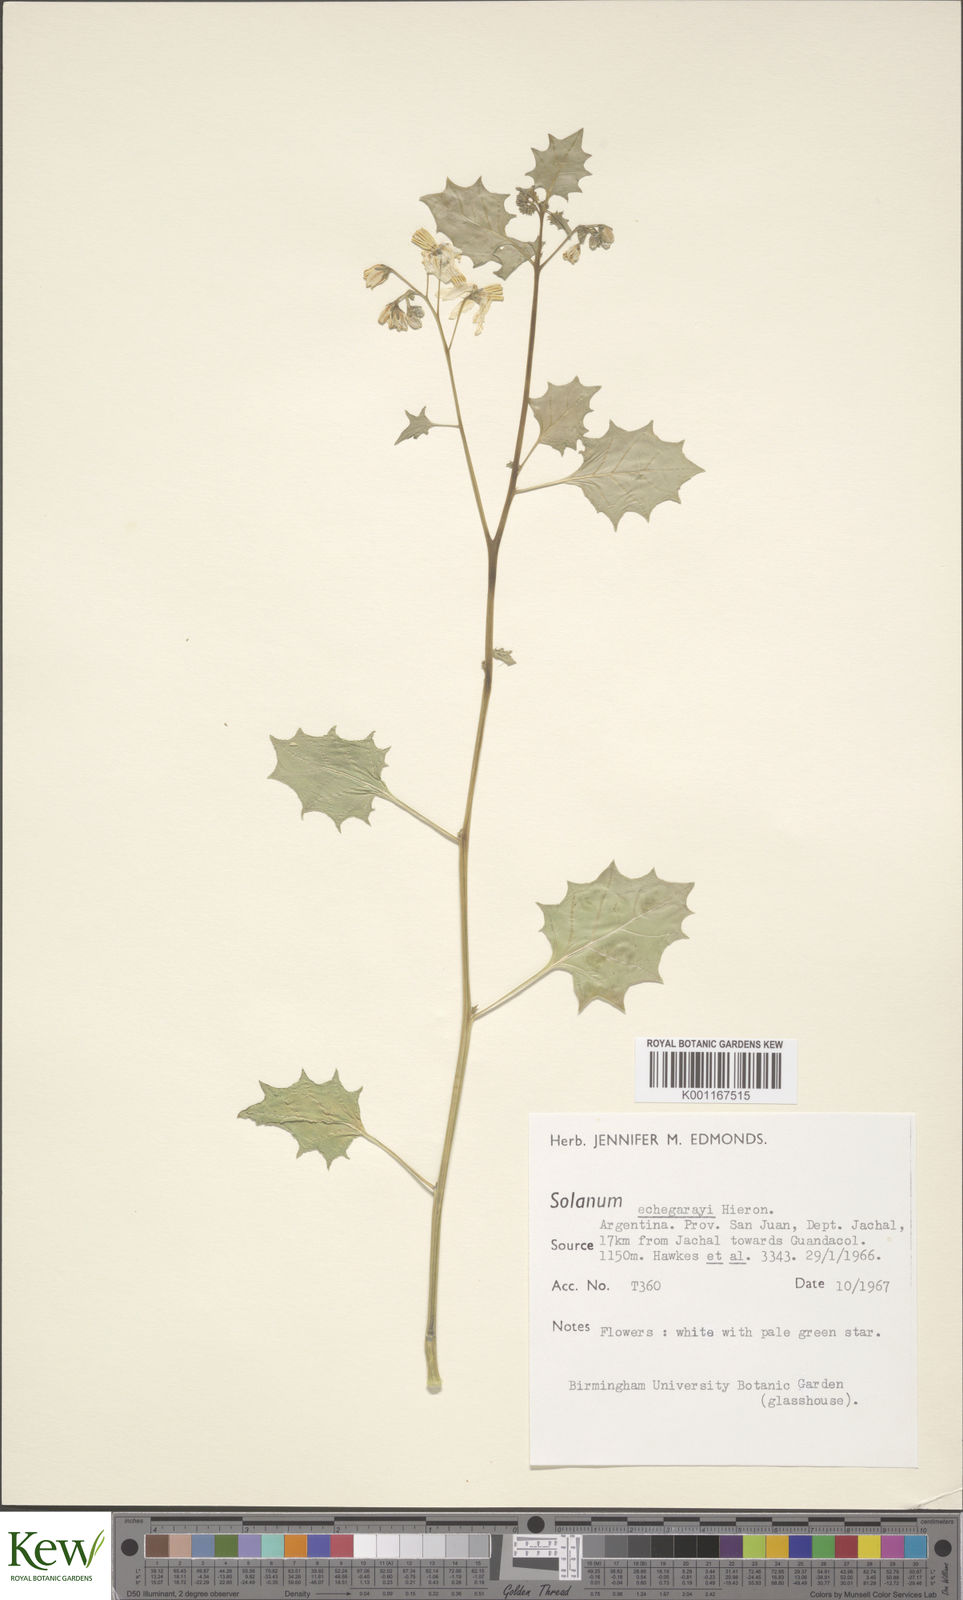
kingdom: Plantae
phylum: Tracheophyta
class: Magnoliopsida
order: Solanales
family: Solanaceae
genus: Solanum
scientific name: Solanum echegarayi
